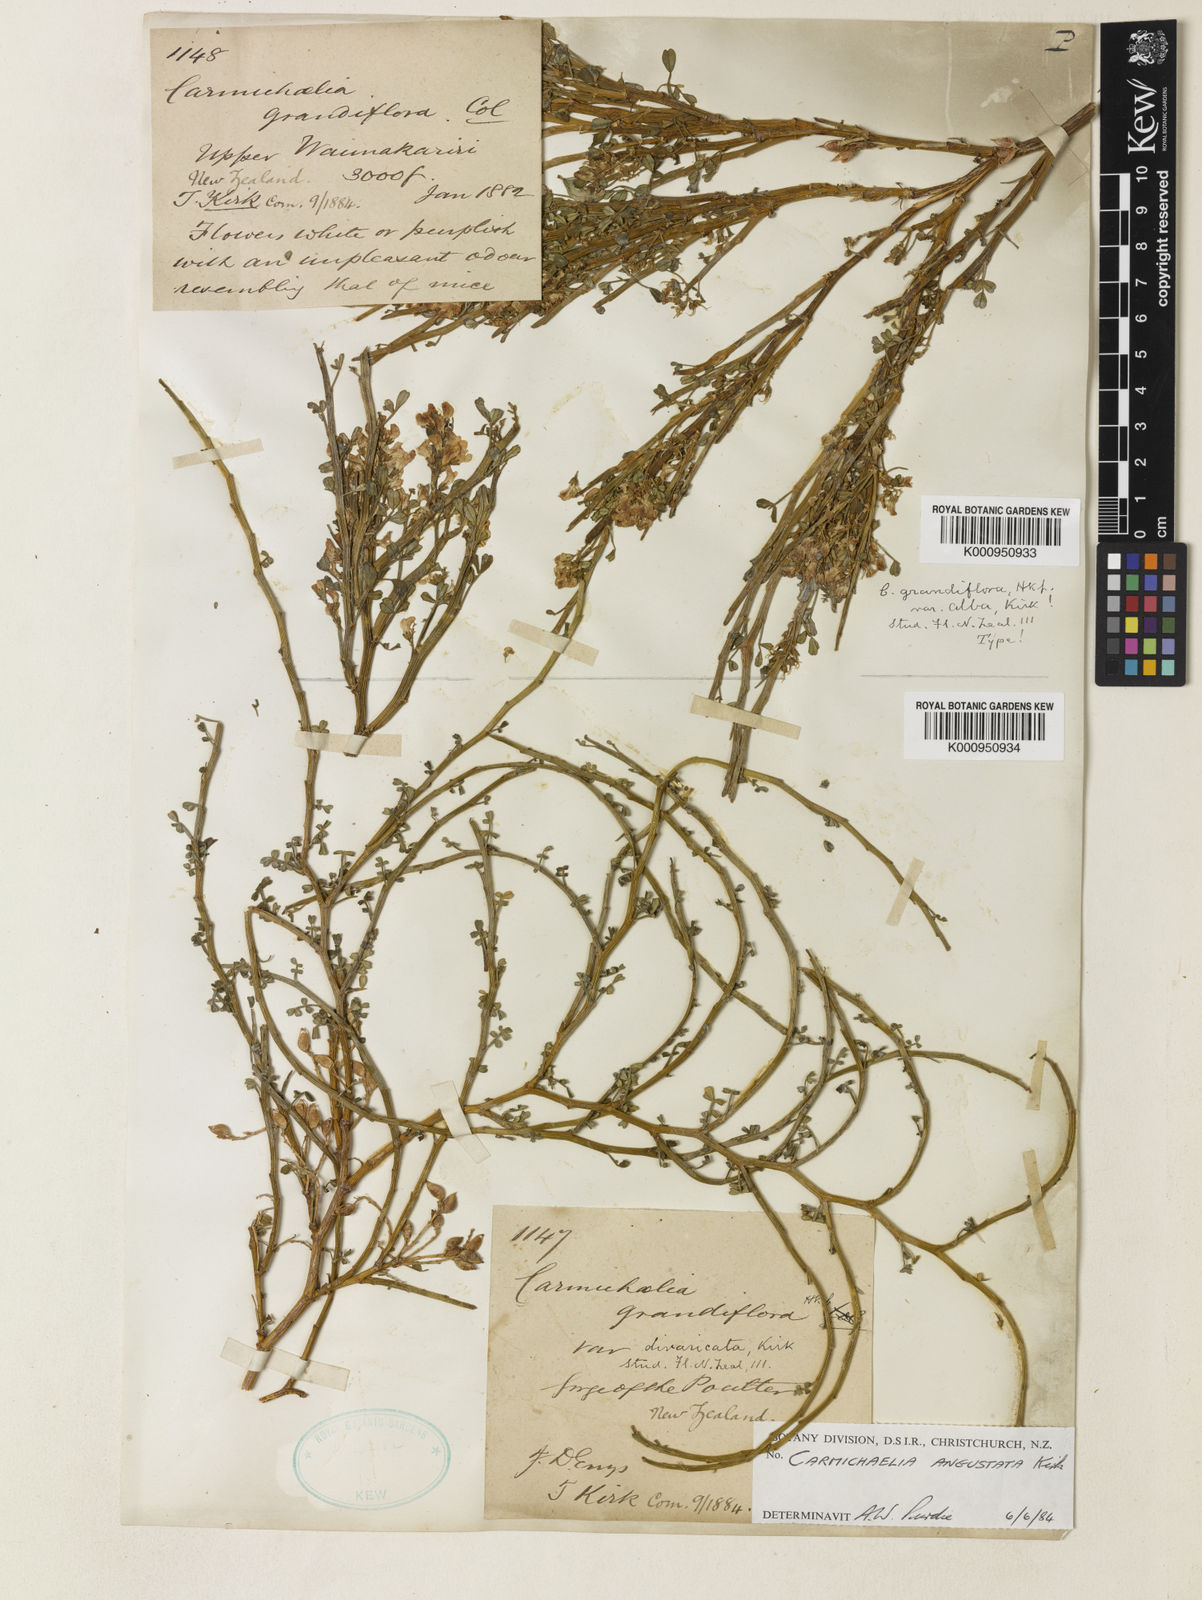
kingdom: Plantae
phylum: Tracheophyta
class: Magnoliopsida
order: Fabales
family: Fabaceae
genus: Carmichaelia
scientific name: Carmichaelia arborea
